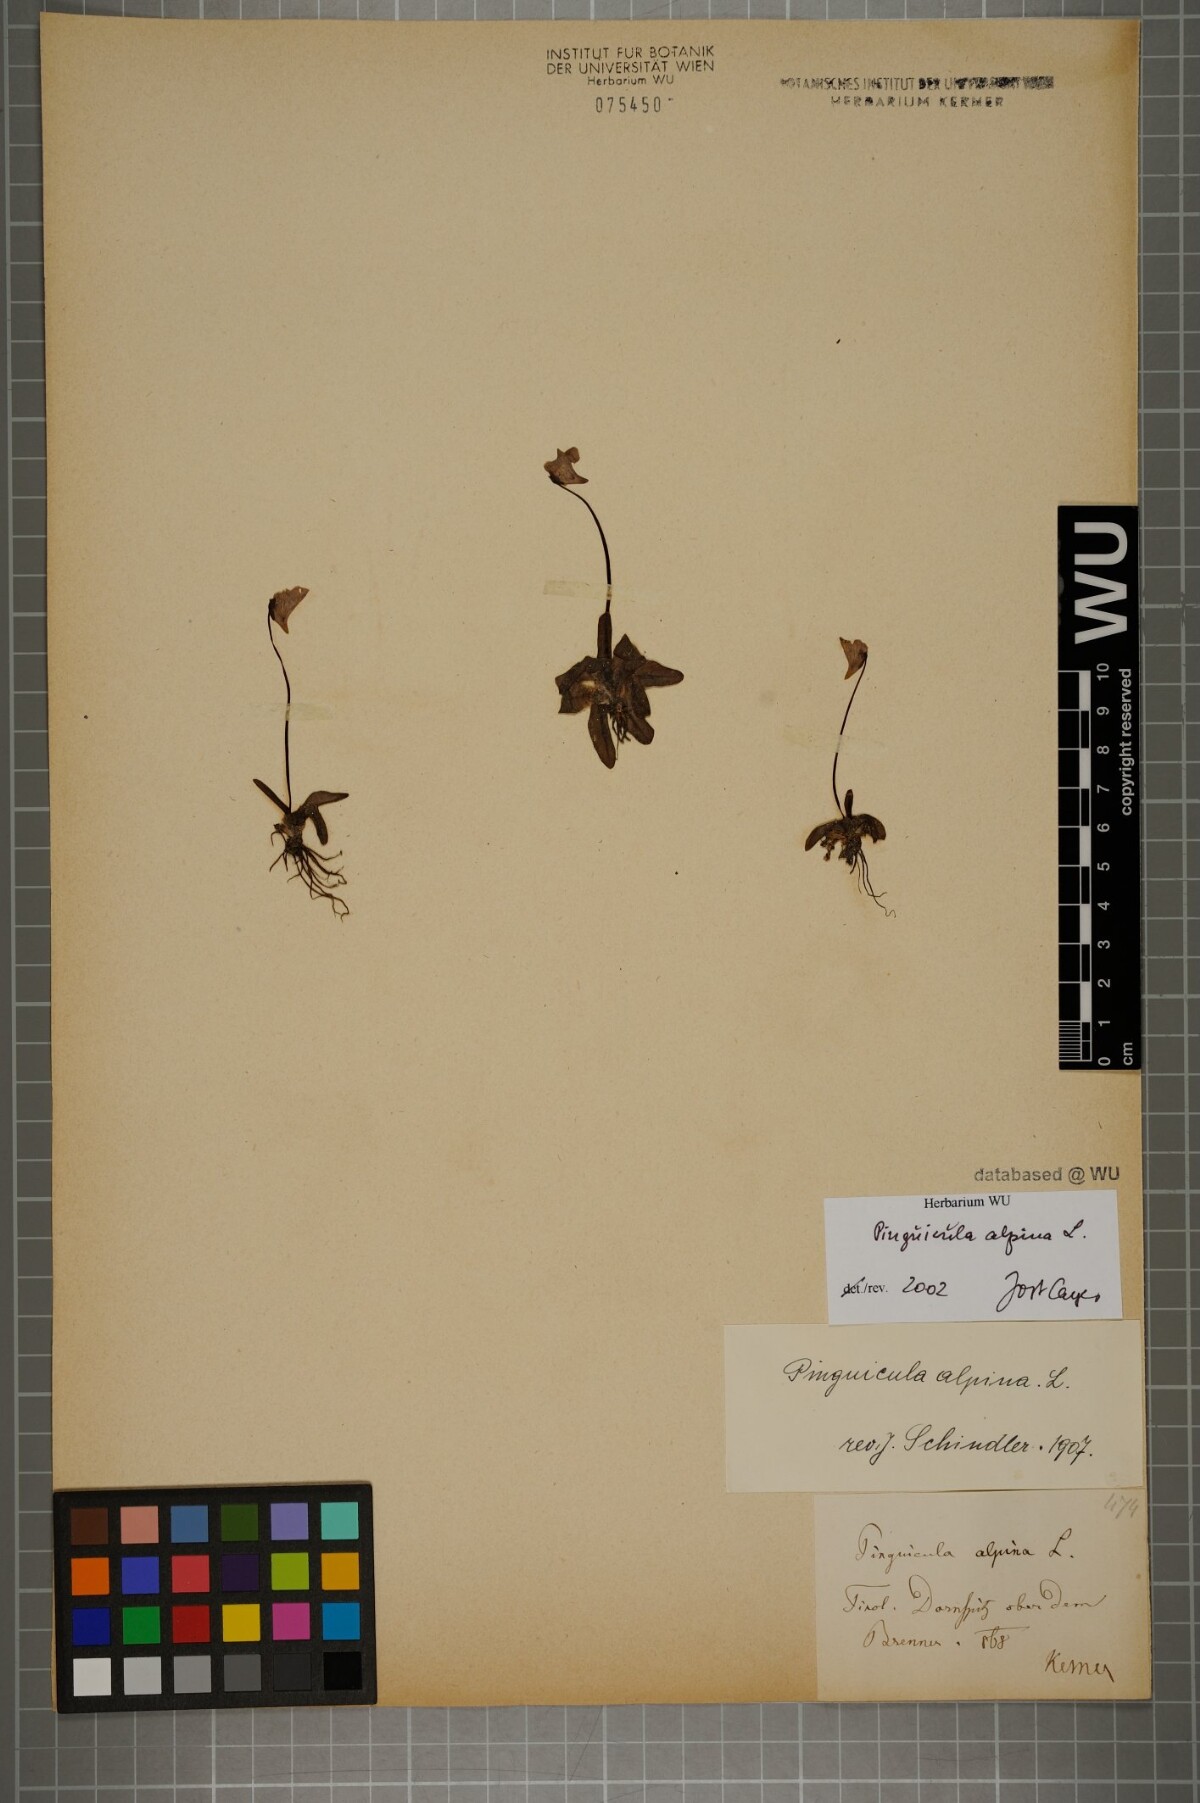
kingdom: Plantae
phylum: Tracheophyta
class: Magnoliopsida
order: Lamiales
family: Lentibulariaceae
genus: Pinguicula
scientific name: Pinguicula alpina
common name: Alpine butterwort
